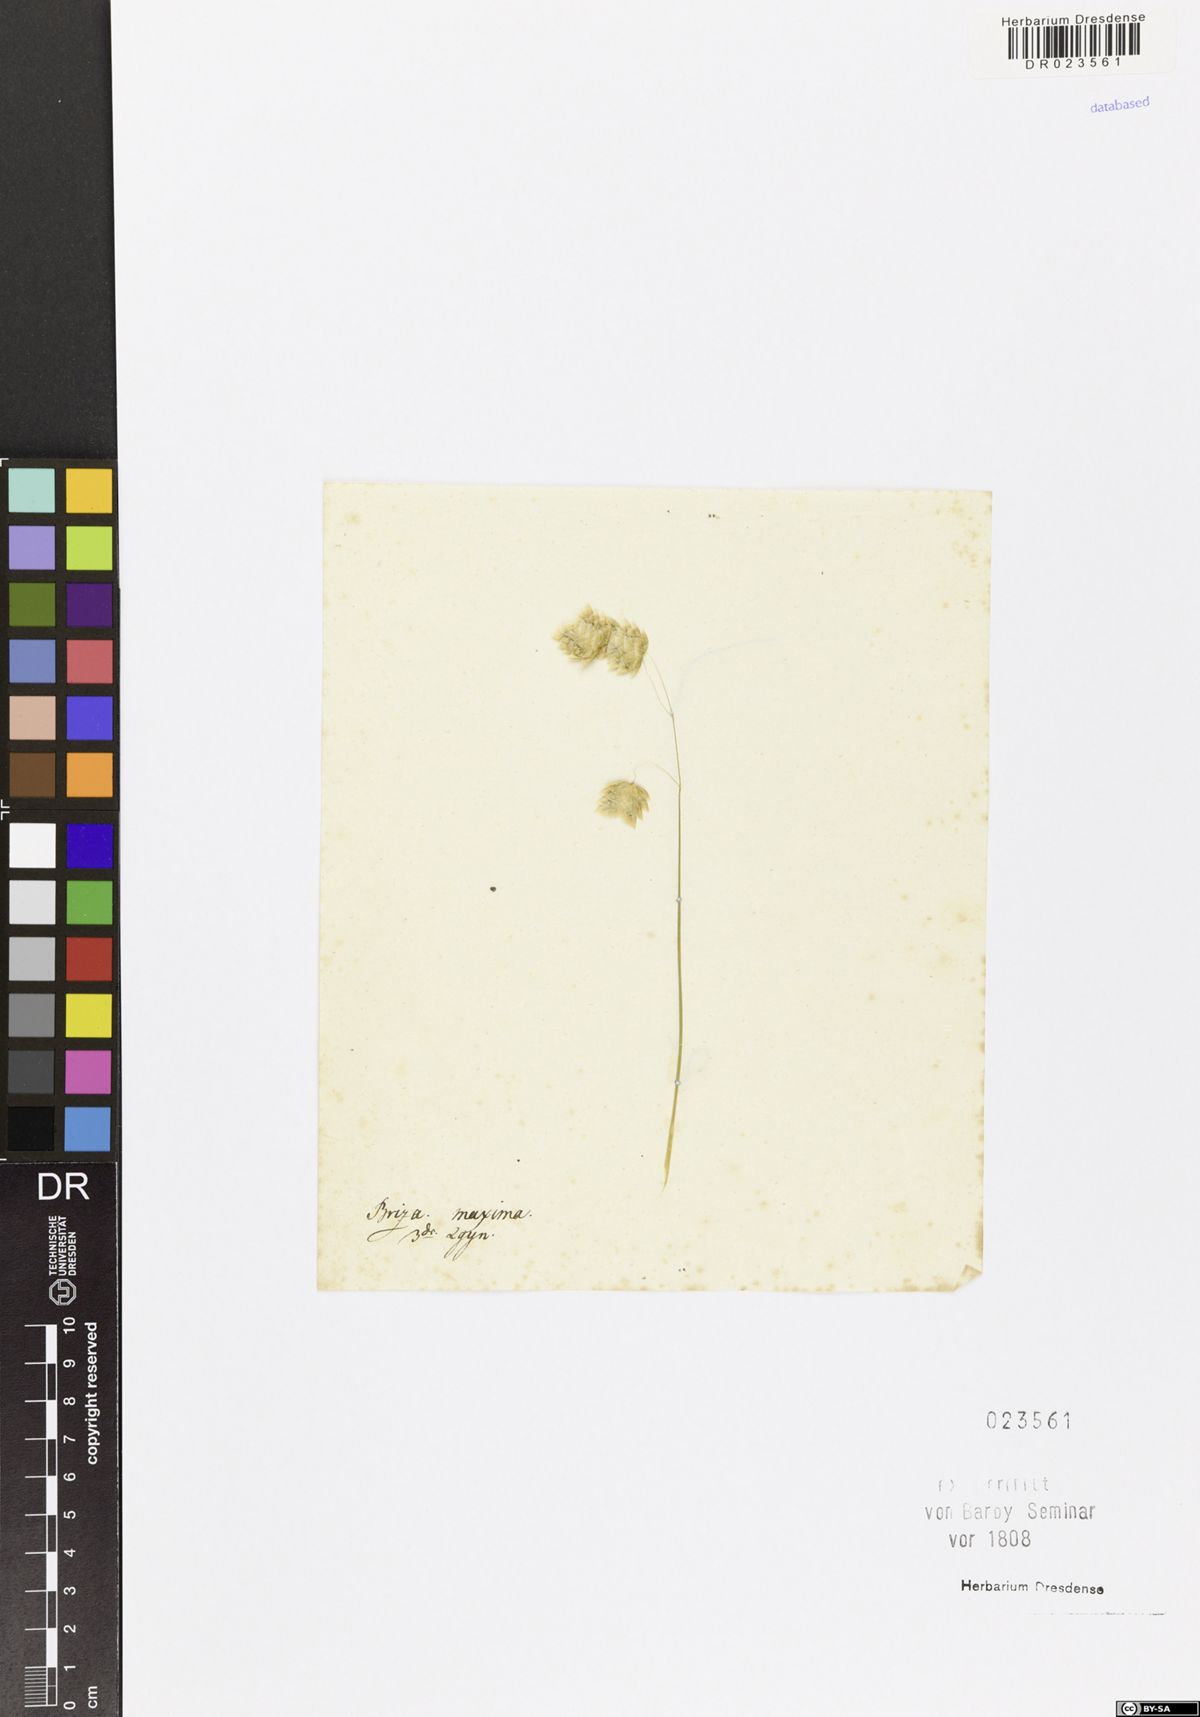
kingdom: Plantae
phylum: Tracheophyta
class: Liliopsida
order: Poales
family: Poaceae
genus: Briza
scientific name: Briza maxima
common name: Big quakinggrass
